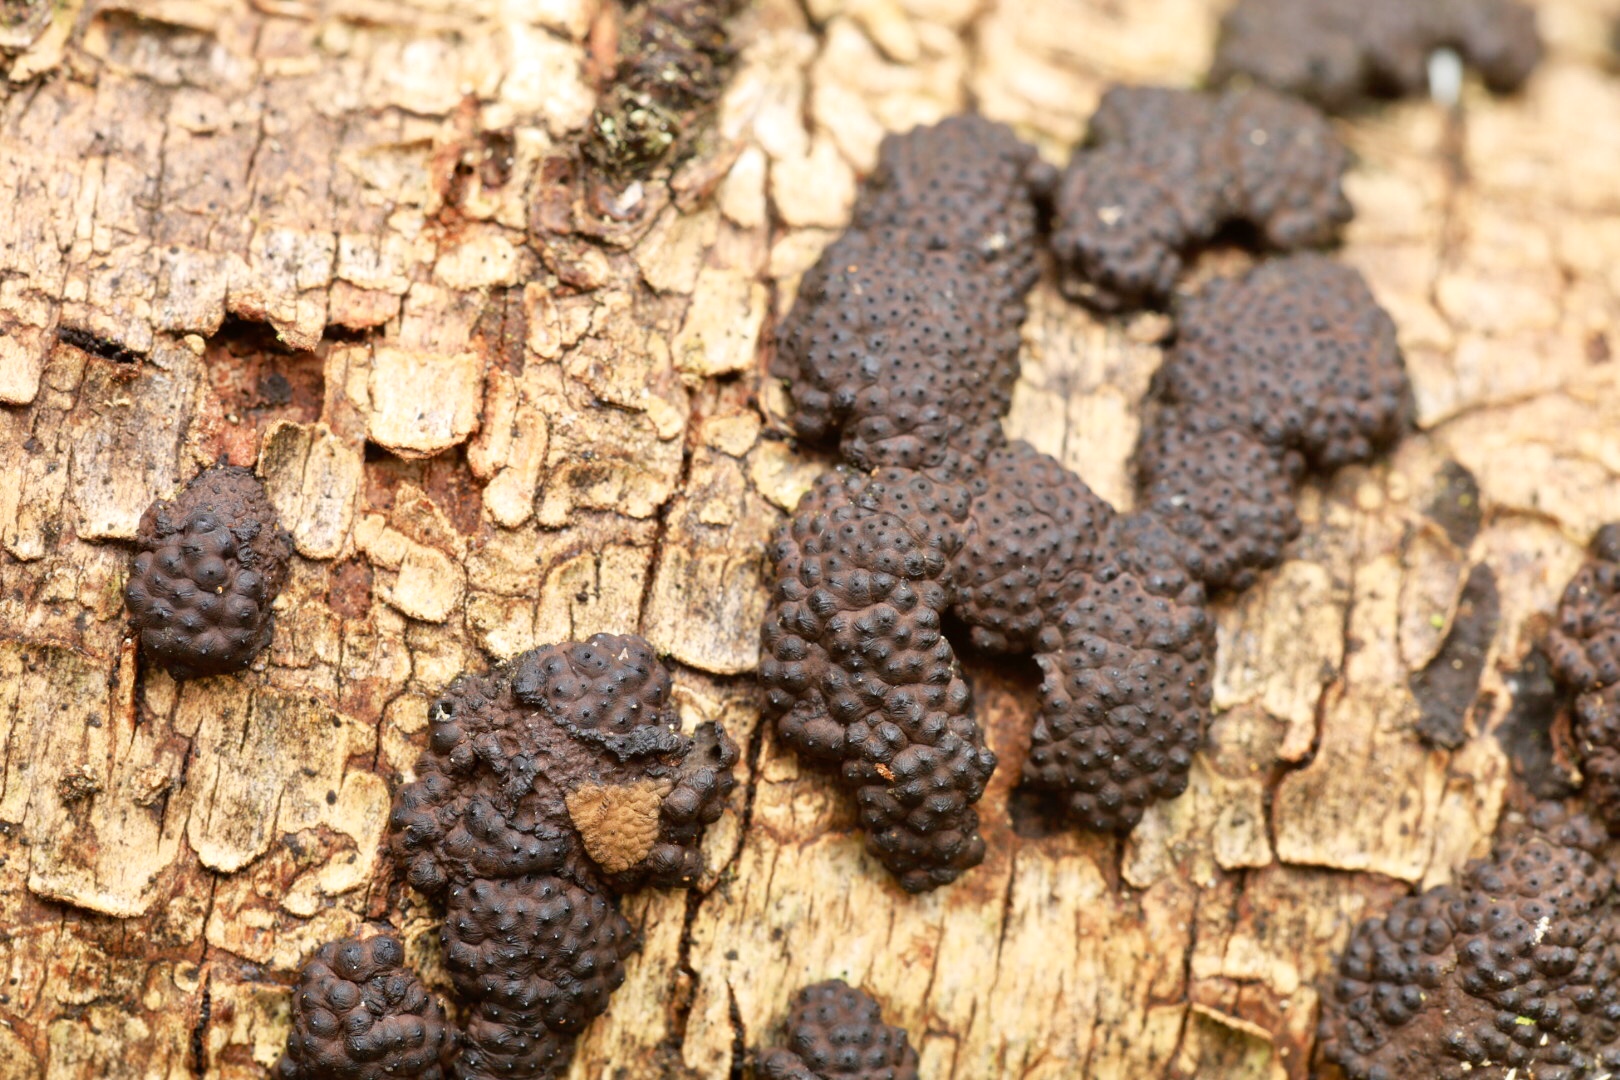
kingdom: Fungi
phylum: Ascomycota
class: Sordariomycetes
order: Xylariales
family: Hypoxylaceae
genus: Jackrogersella
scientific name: Jackrogersella multiformis
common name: foranderlig kulbær
